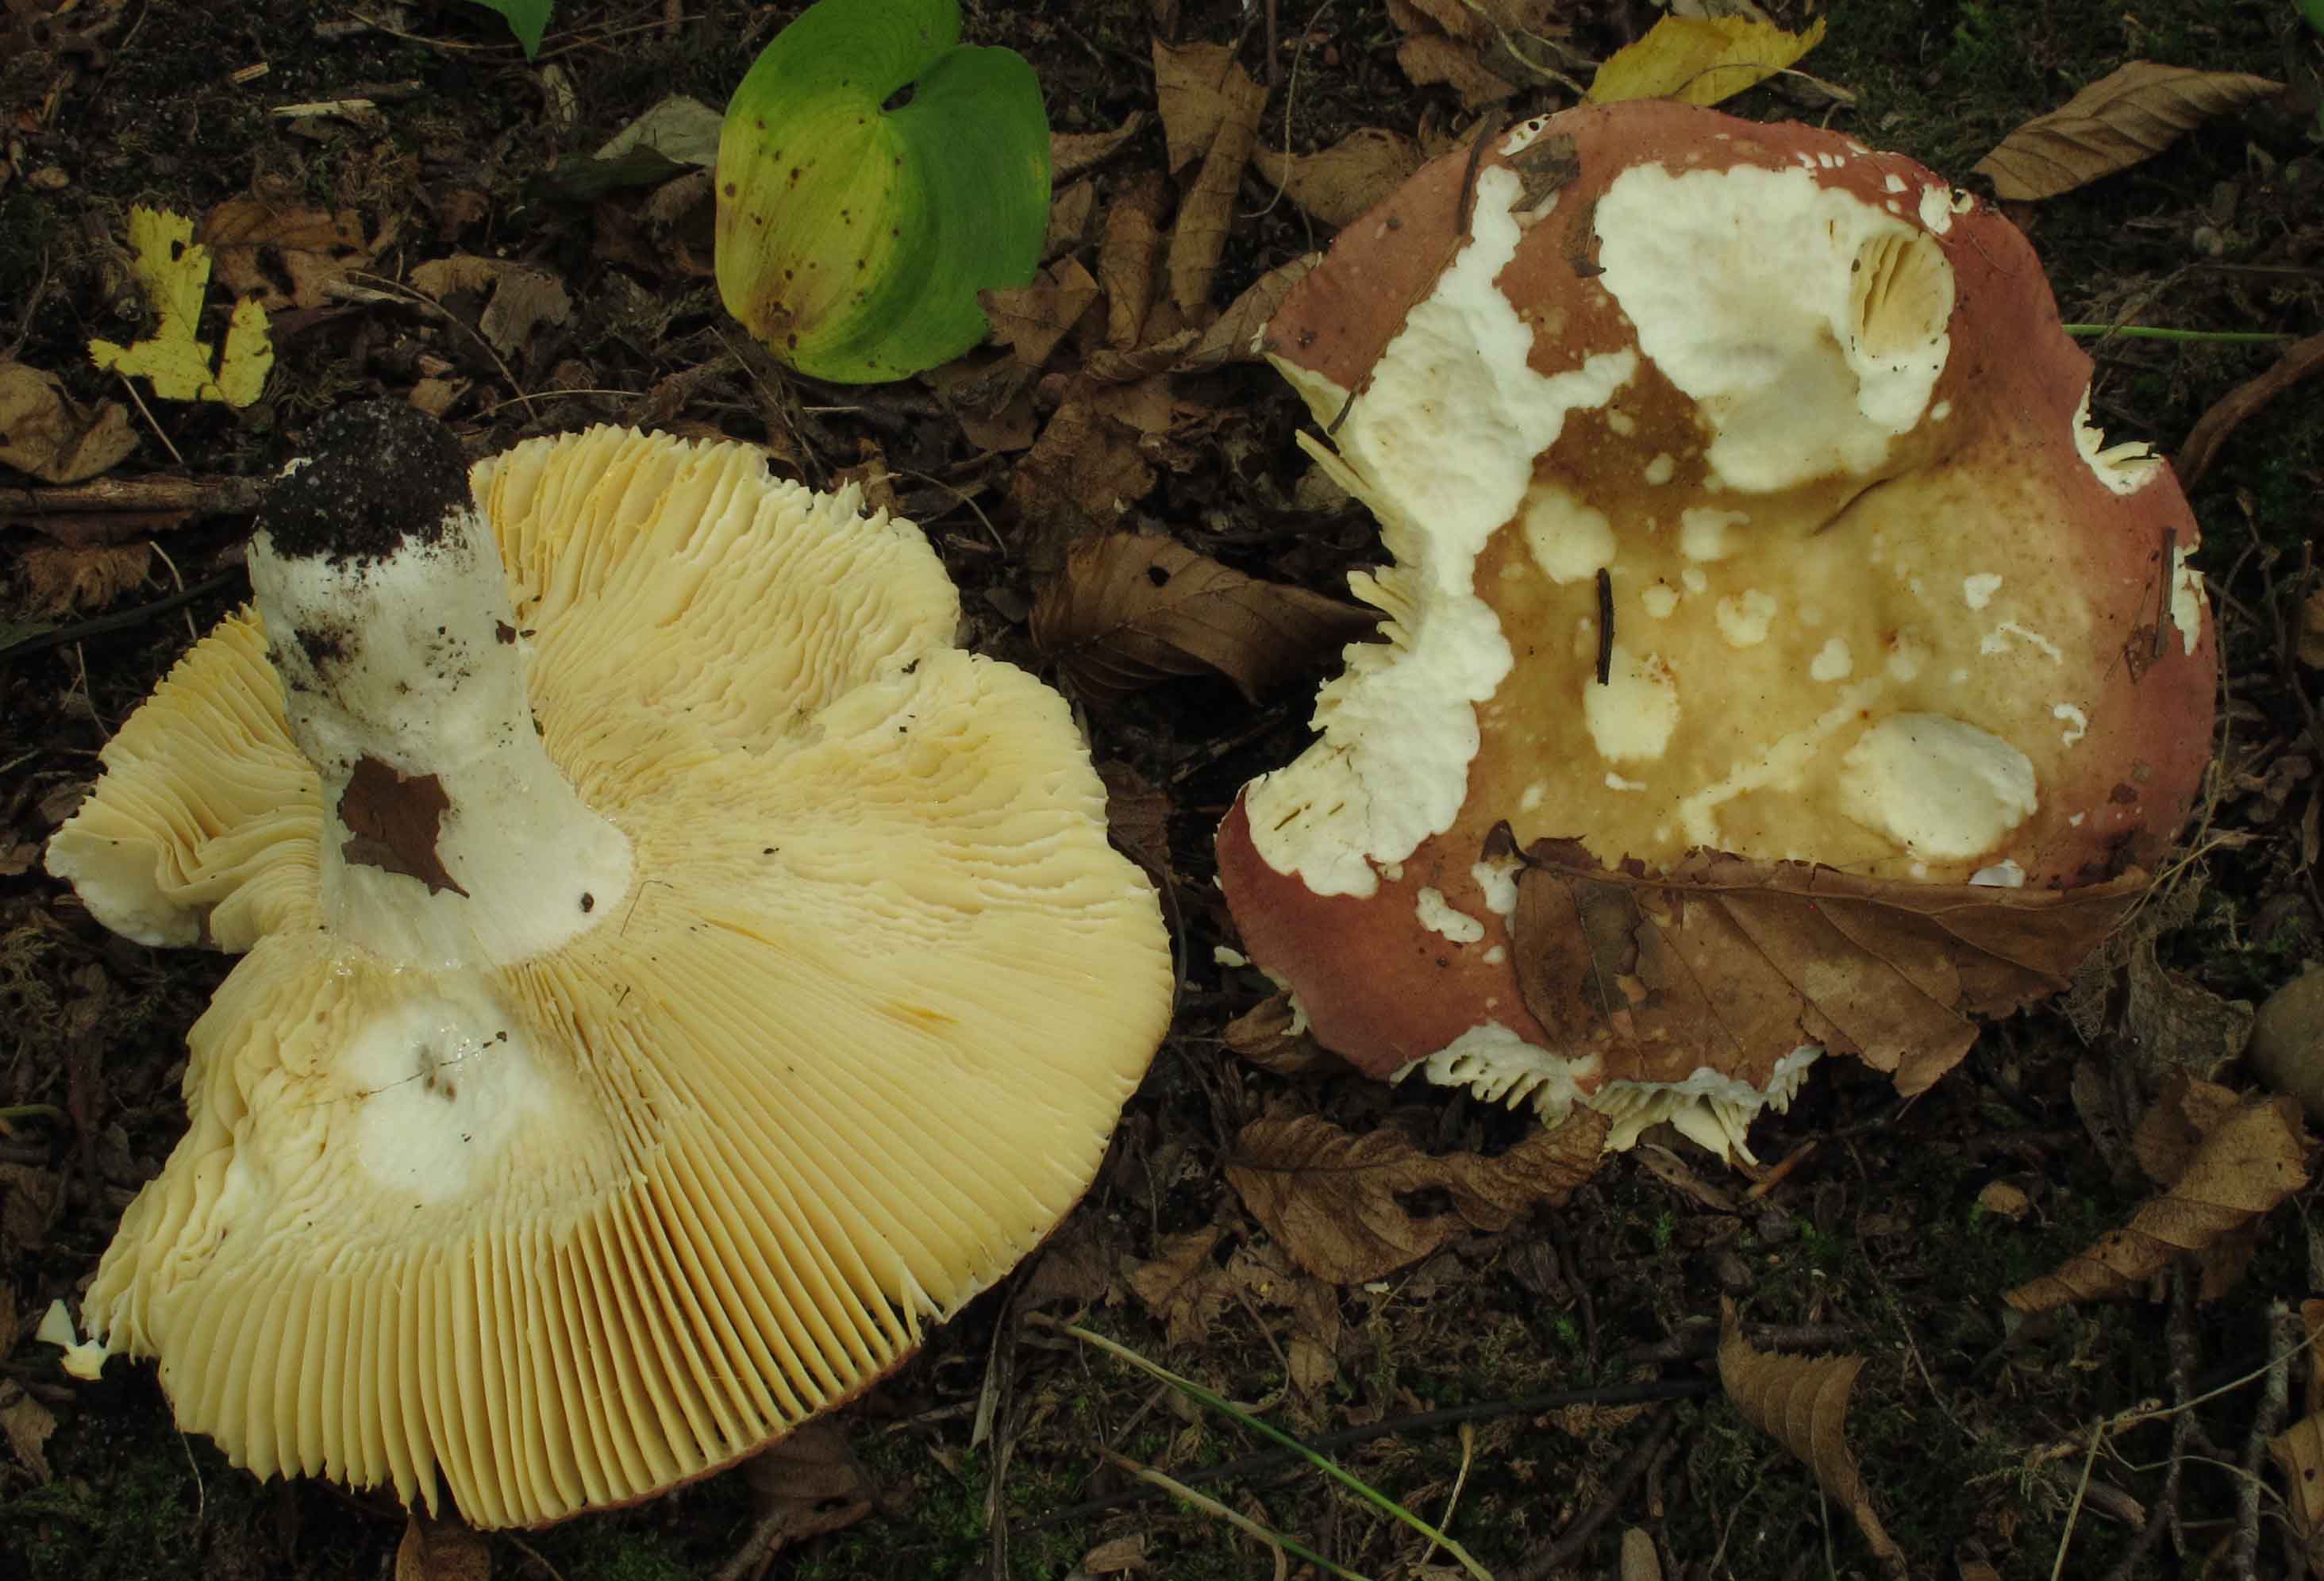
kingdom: Fungi
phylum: Basidiomycota
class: Agaricomycetes
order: Russulales
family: Russulaceae
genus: Russula
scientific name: Russula faginea
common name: bøge-skørhat
